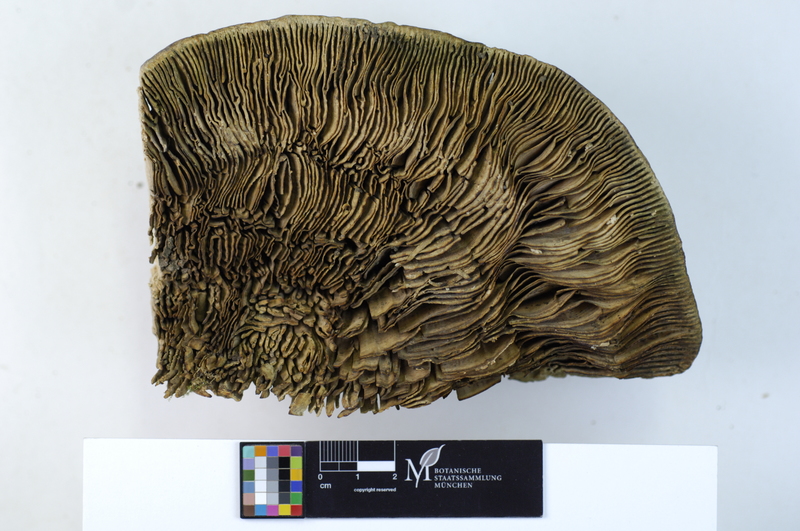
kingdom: Fungi
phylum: Basidiomycota
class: Agaricomycetes
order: Polyporales
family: Polyporaceae
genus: Cellulariella
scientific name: Cellulariella warnieri
